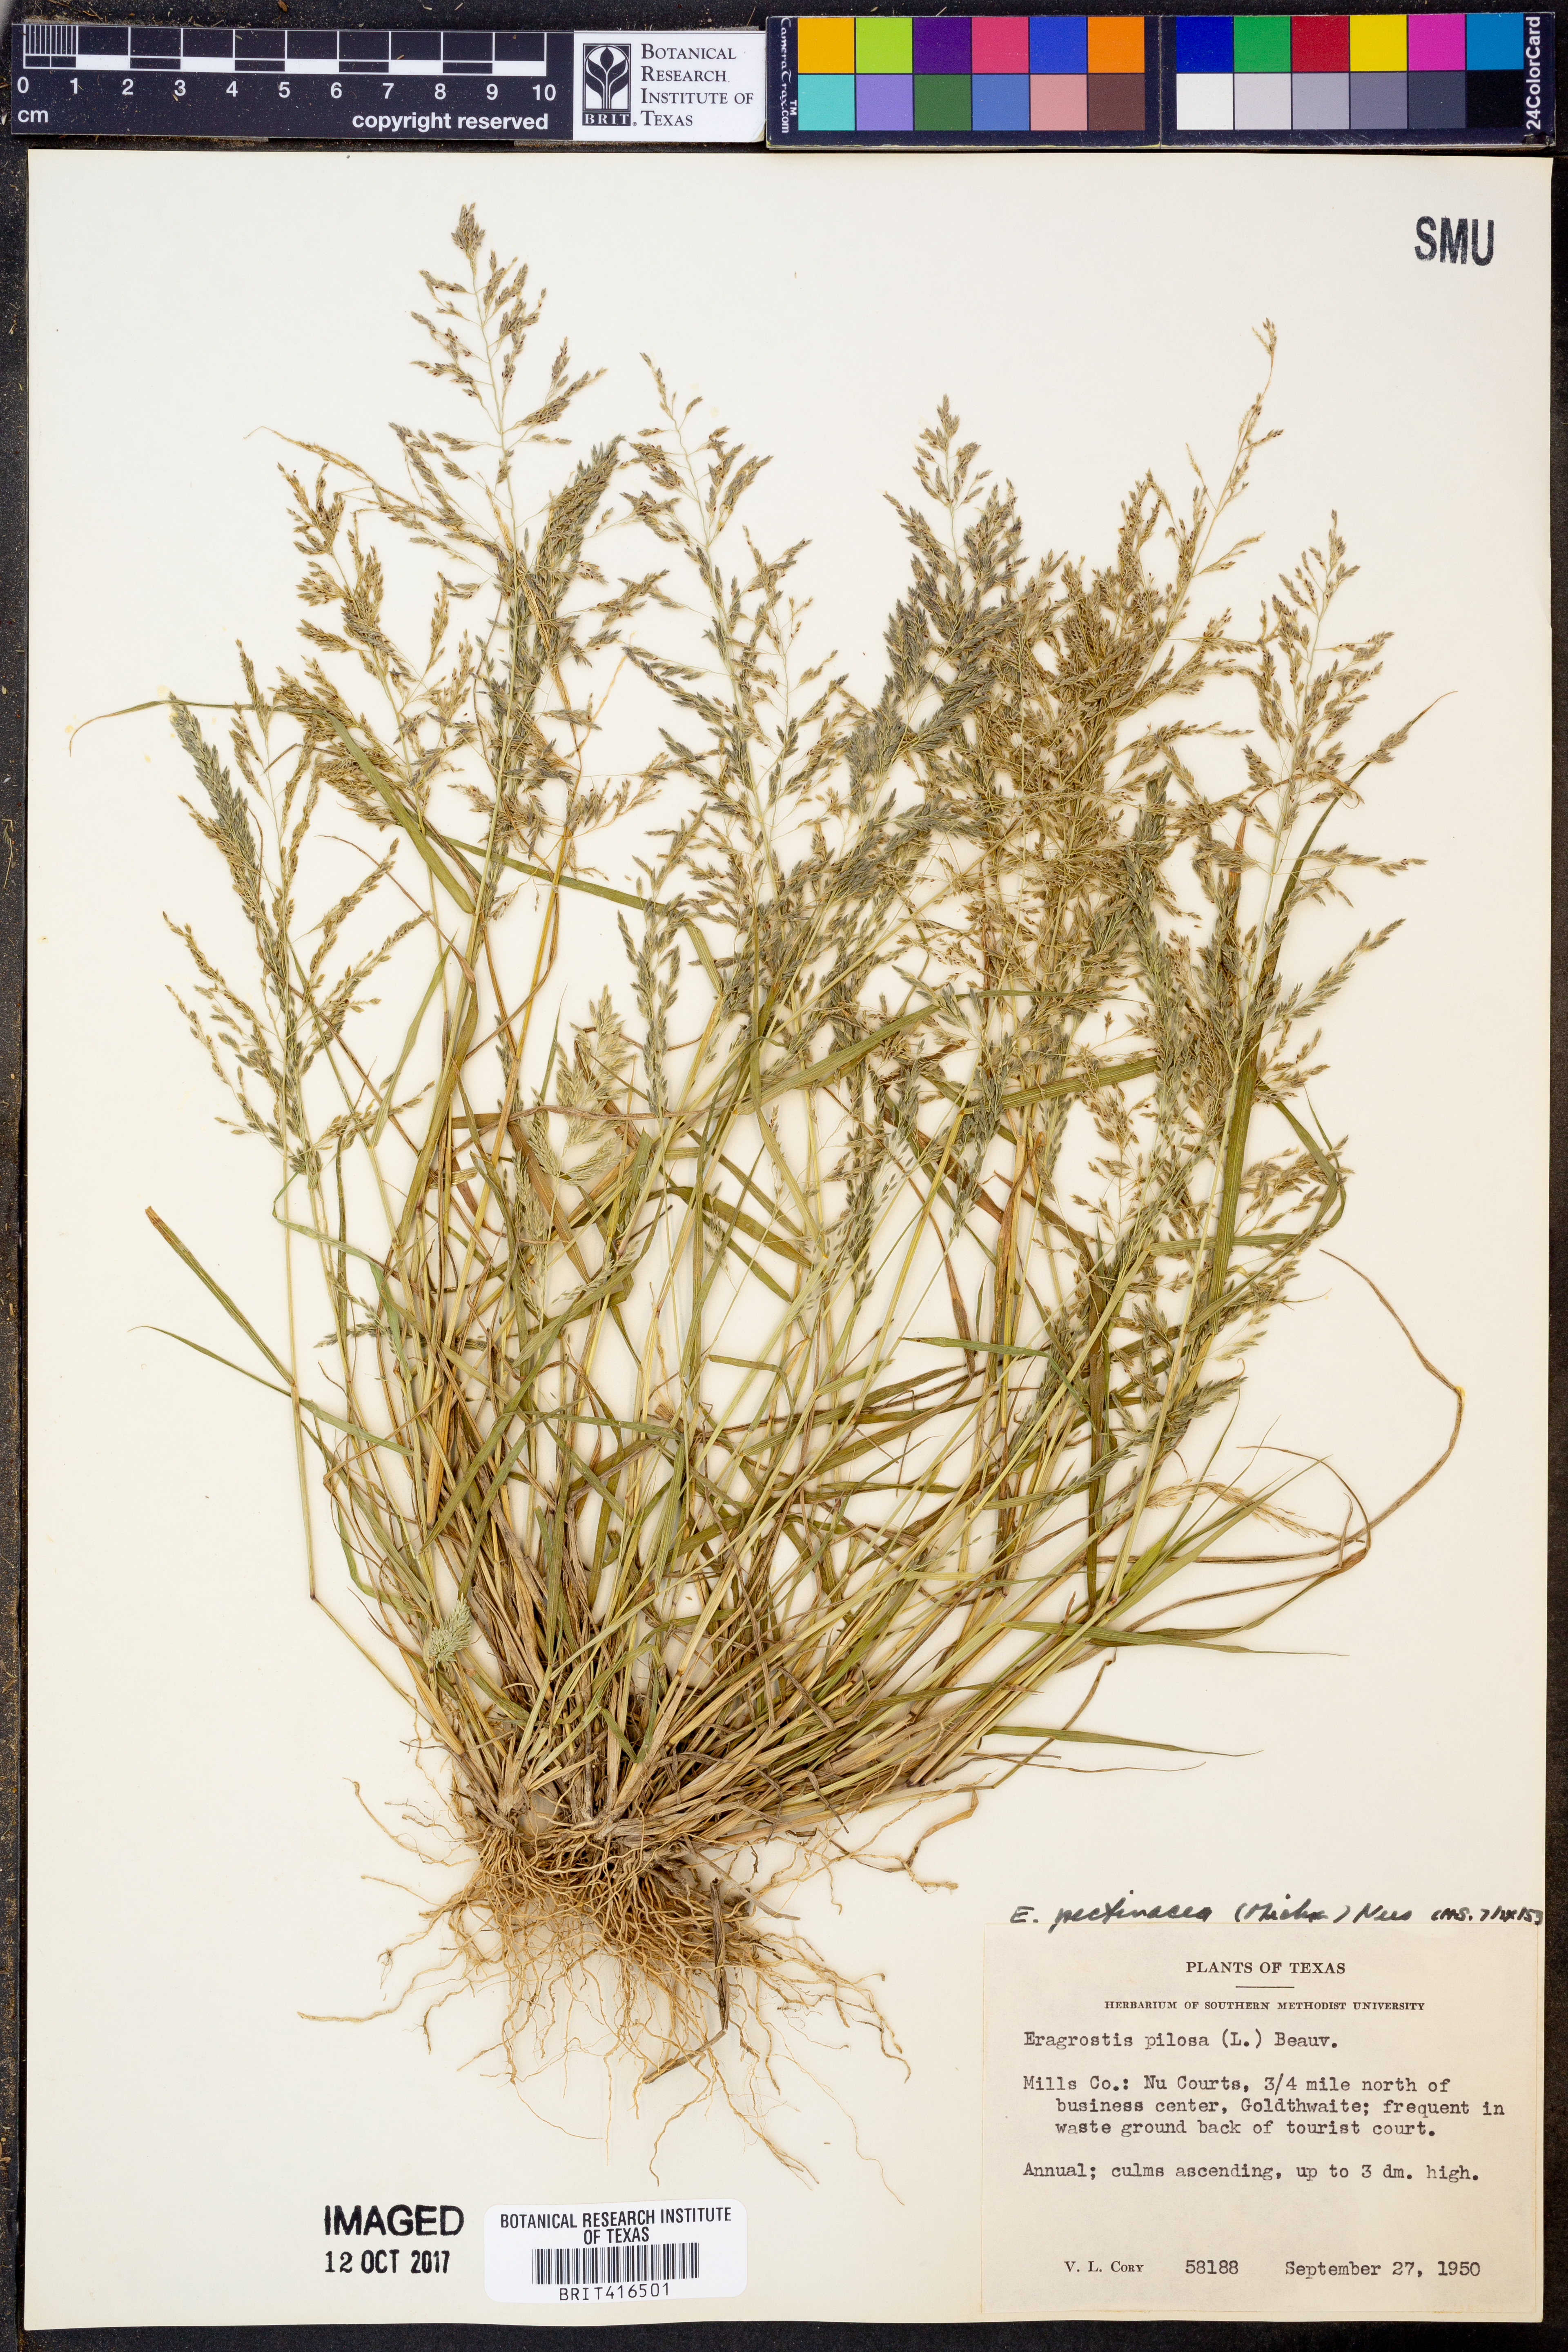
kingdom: Plantae
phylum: Tracheophyta
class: Liliopsida
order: Poales
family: Poaceae
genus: Eragrostis
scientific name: Eragrostis pilosa
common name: Indian lovegrass
